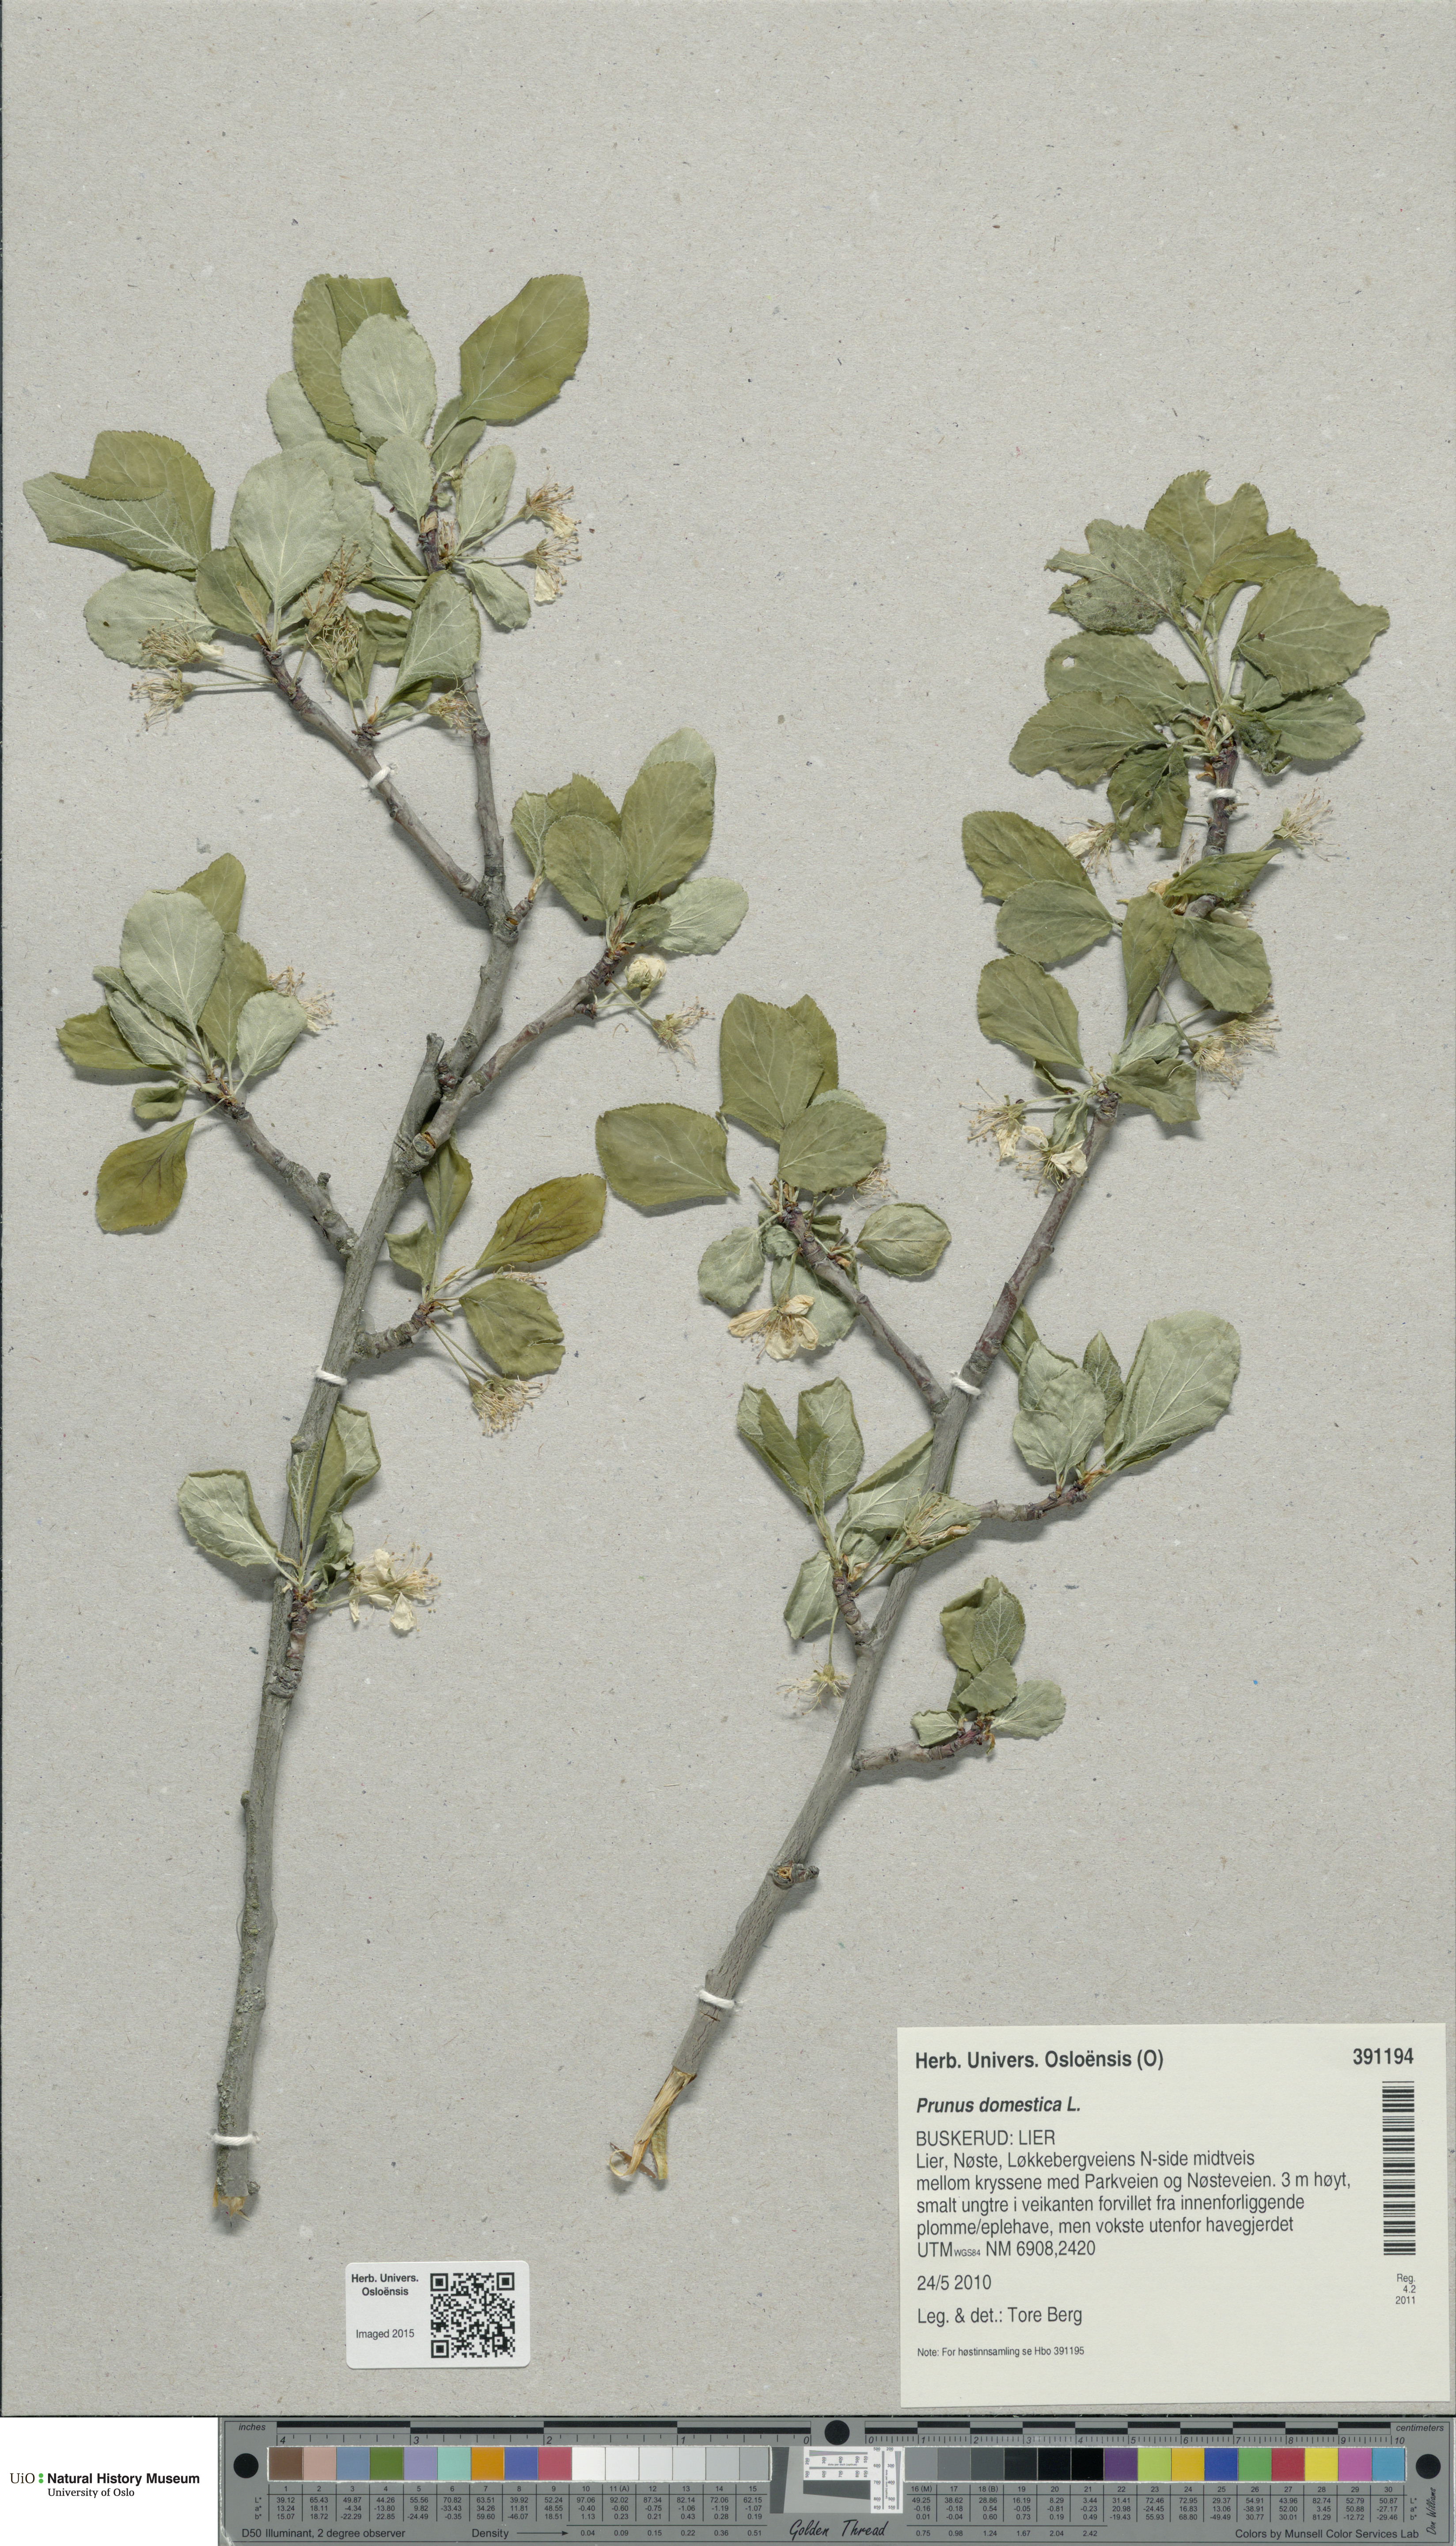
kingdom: Plantae
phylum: Tracheophyta
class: Magnoliopsida
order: Rosales
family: Rosaceae
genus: Prunus
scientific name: Prunus domestica
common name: Wild plum
